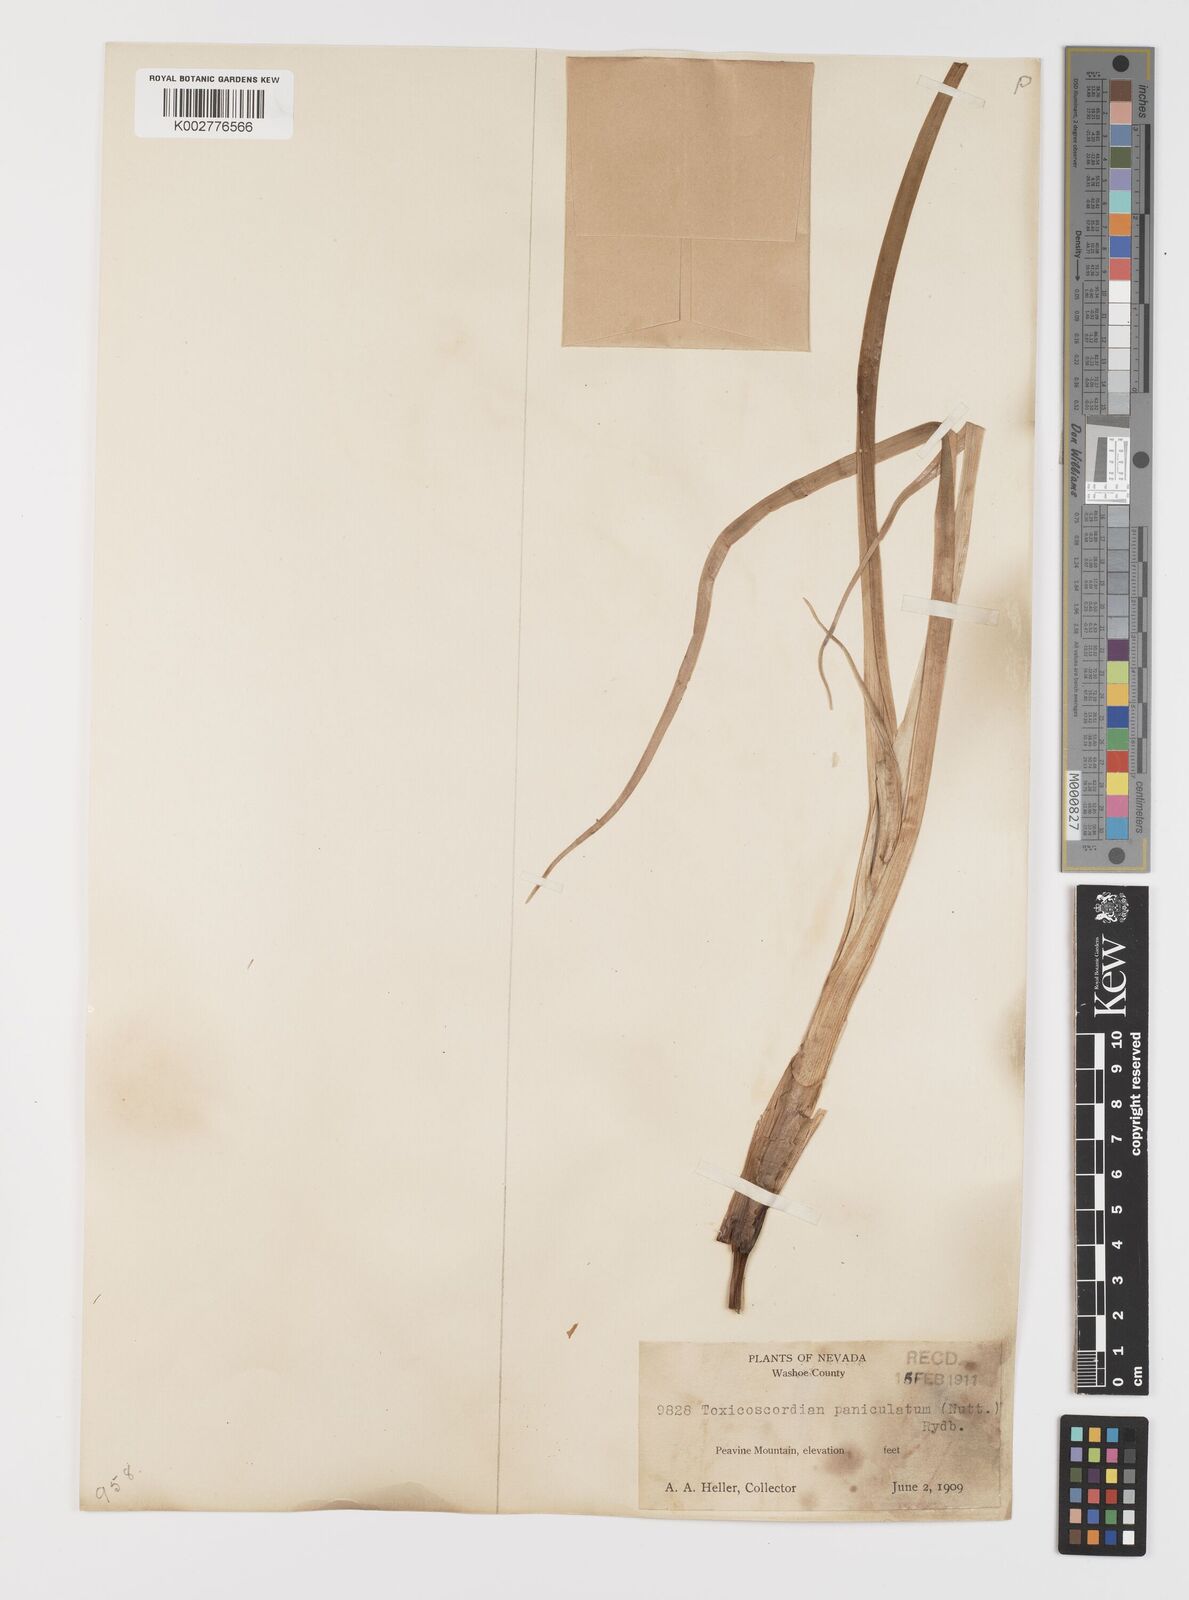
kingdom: Plantae
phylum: Tracheophyta
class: Liliopsida
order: Liliales
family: Melanthiaceae
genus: Toxicoscordion
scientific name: Toxicoscordion paniculatum
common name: Foothill death camas
